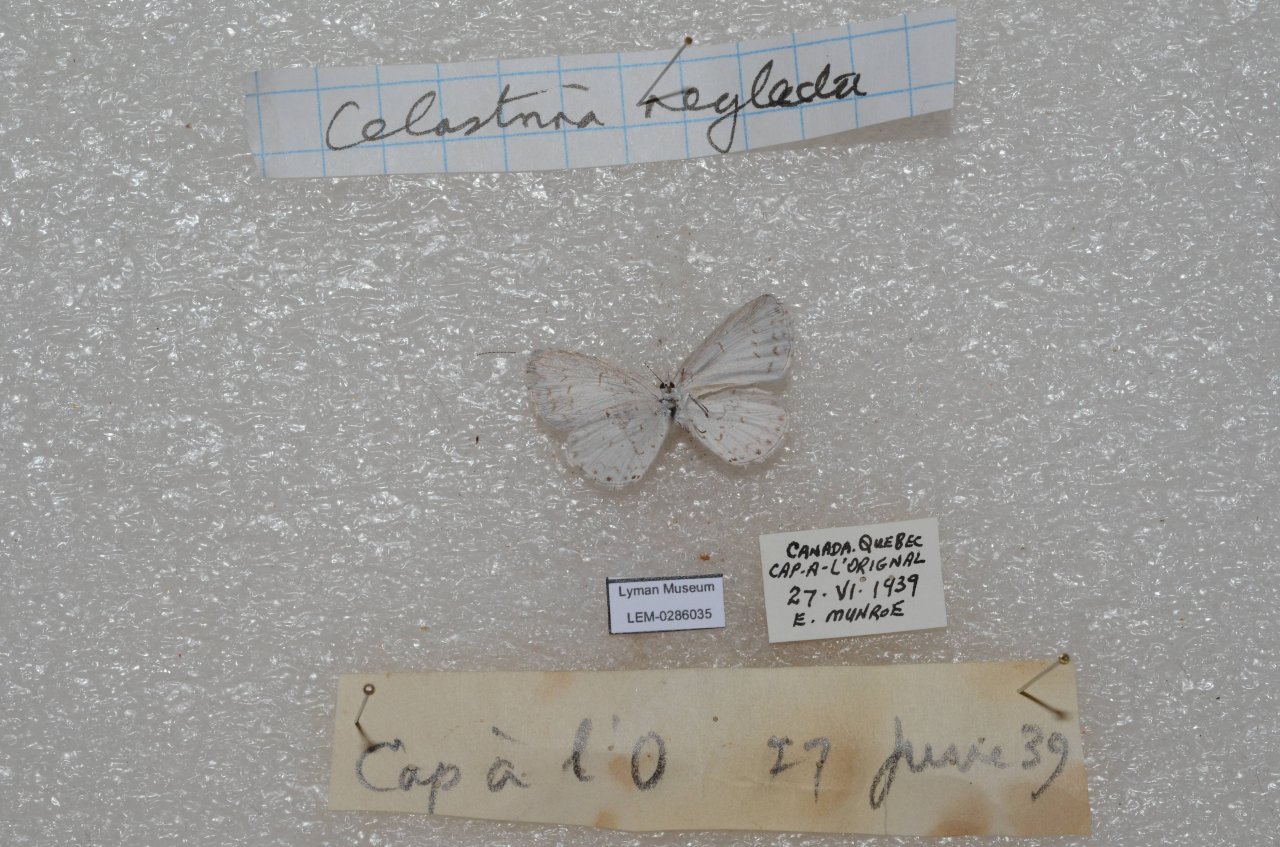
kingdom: Animalia
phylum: Arthropoda
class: Insecta
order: Lepidoptera
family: Lycaenidae
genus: Celastrina
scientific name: Celastrina lucia
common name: Northern Spring Azure
